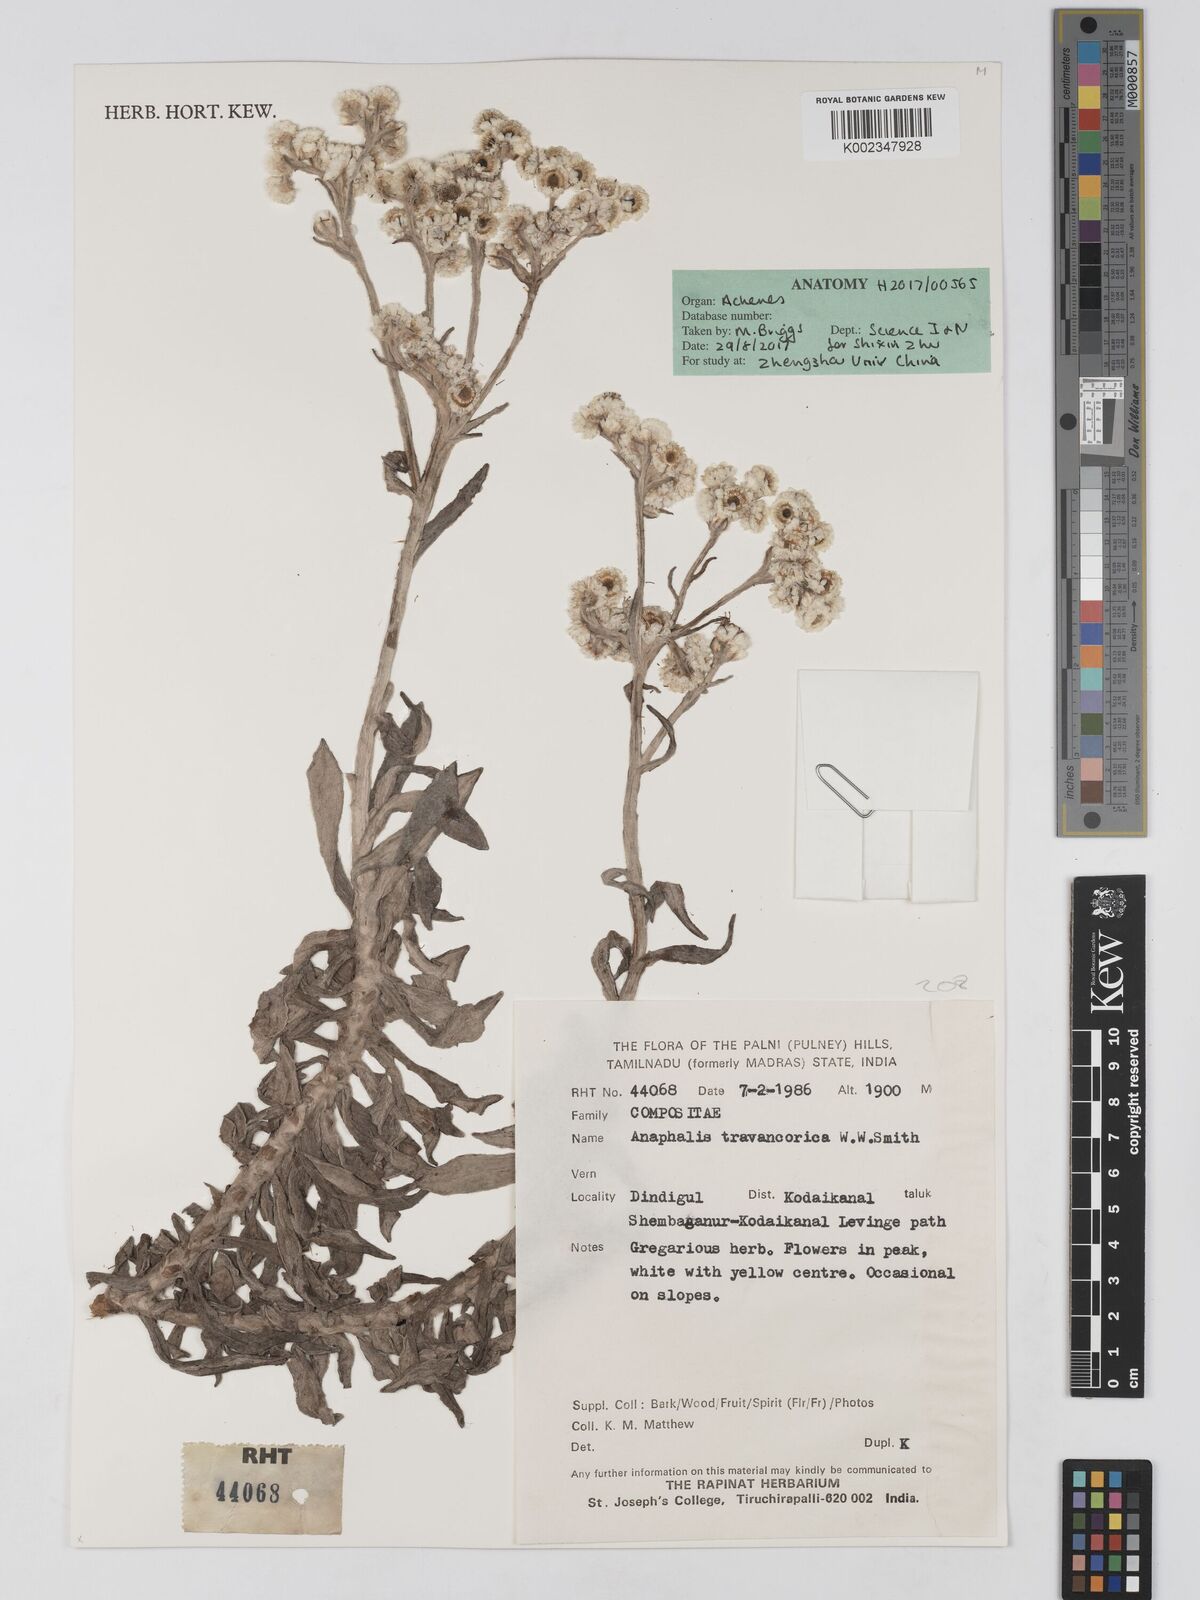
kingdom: Plantae
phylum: Tracheophyta
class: Magnoliopsida
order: Asterales
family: Asteraceae
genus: Anaphalis
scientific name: Anaphalis travancorica
